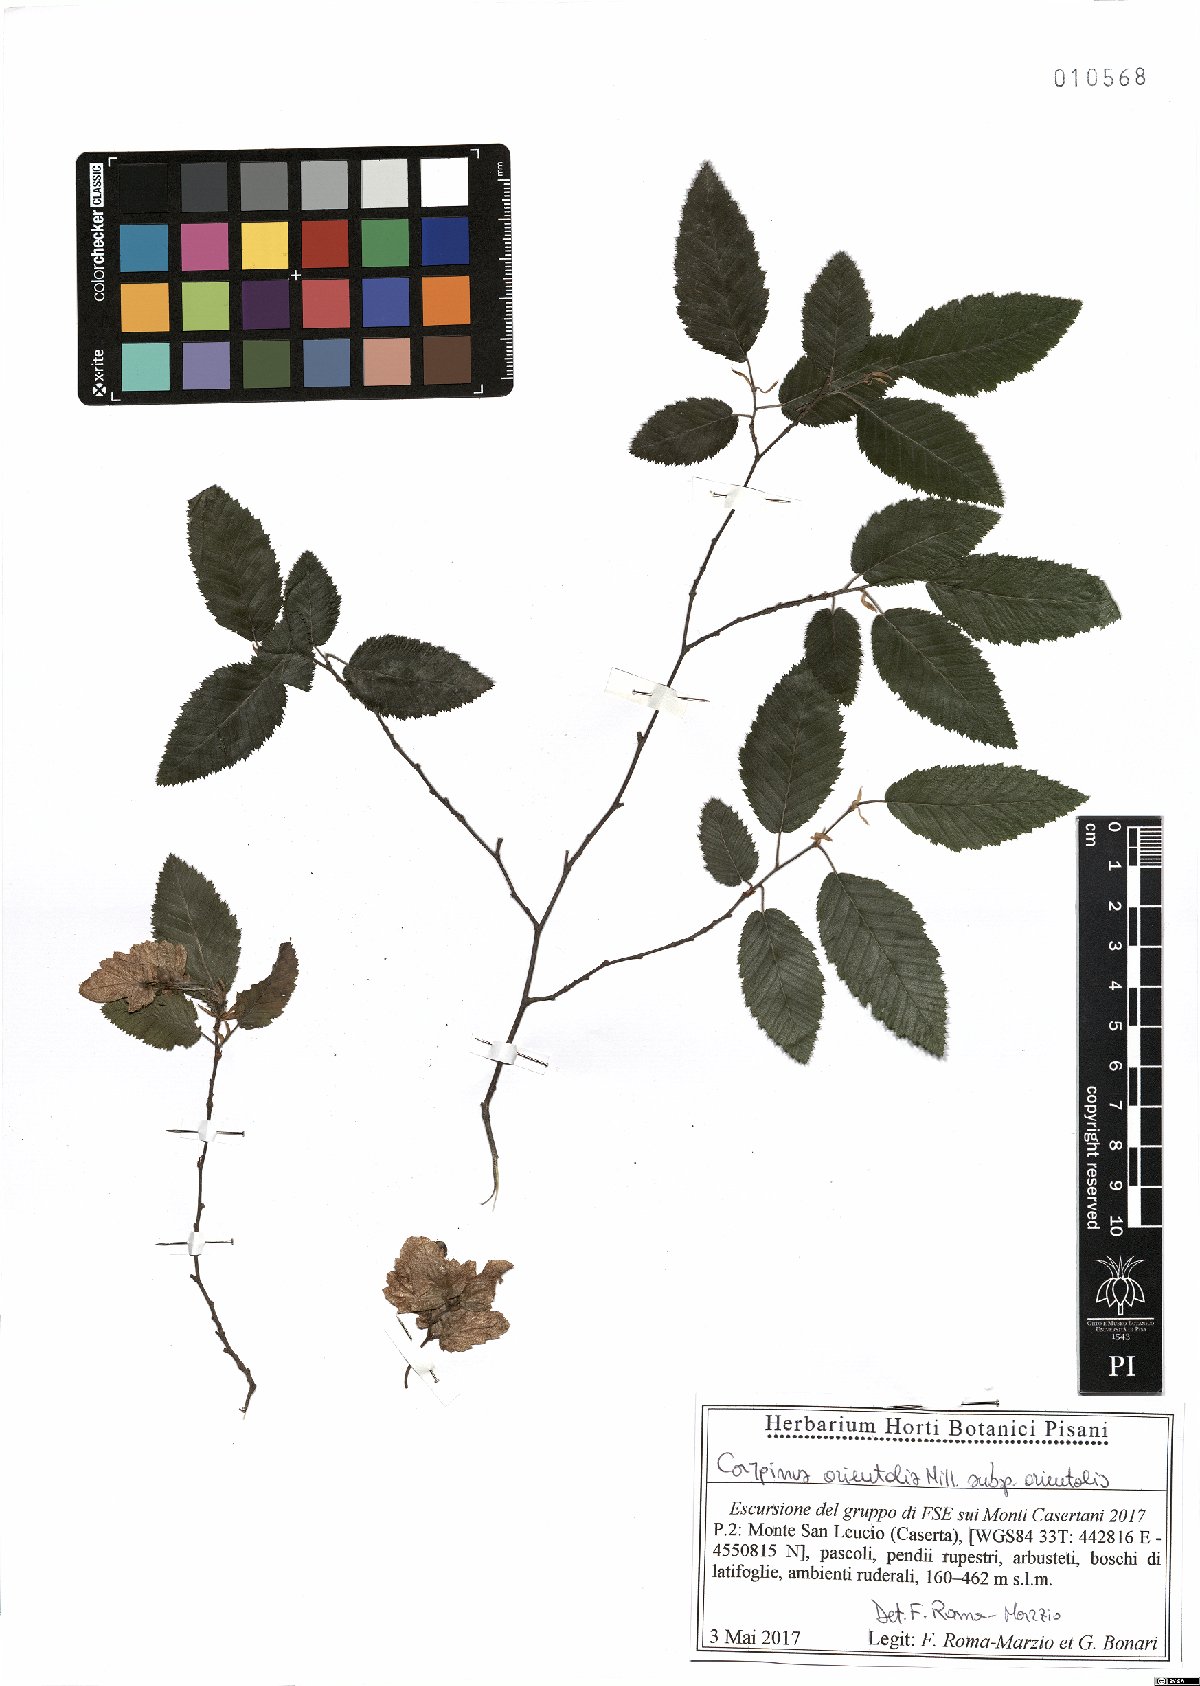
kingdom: Plantae
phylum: Tracheophyta
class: Magnoliopsida
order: Fagales
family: Betulaceae
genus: Carpinus
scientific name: Carpinus orientalis
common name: Eastern hornbeam
